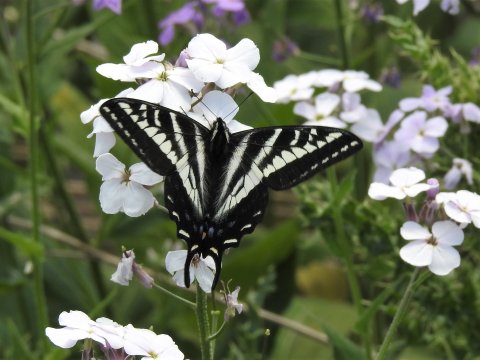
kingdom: Animalia
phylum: Arthropoda
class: Insecta
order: Lepidoptera
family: Papilionidae
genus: Pterourus
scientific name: Pterourus eurymedon
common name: Pale Swallowtail
